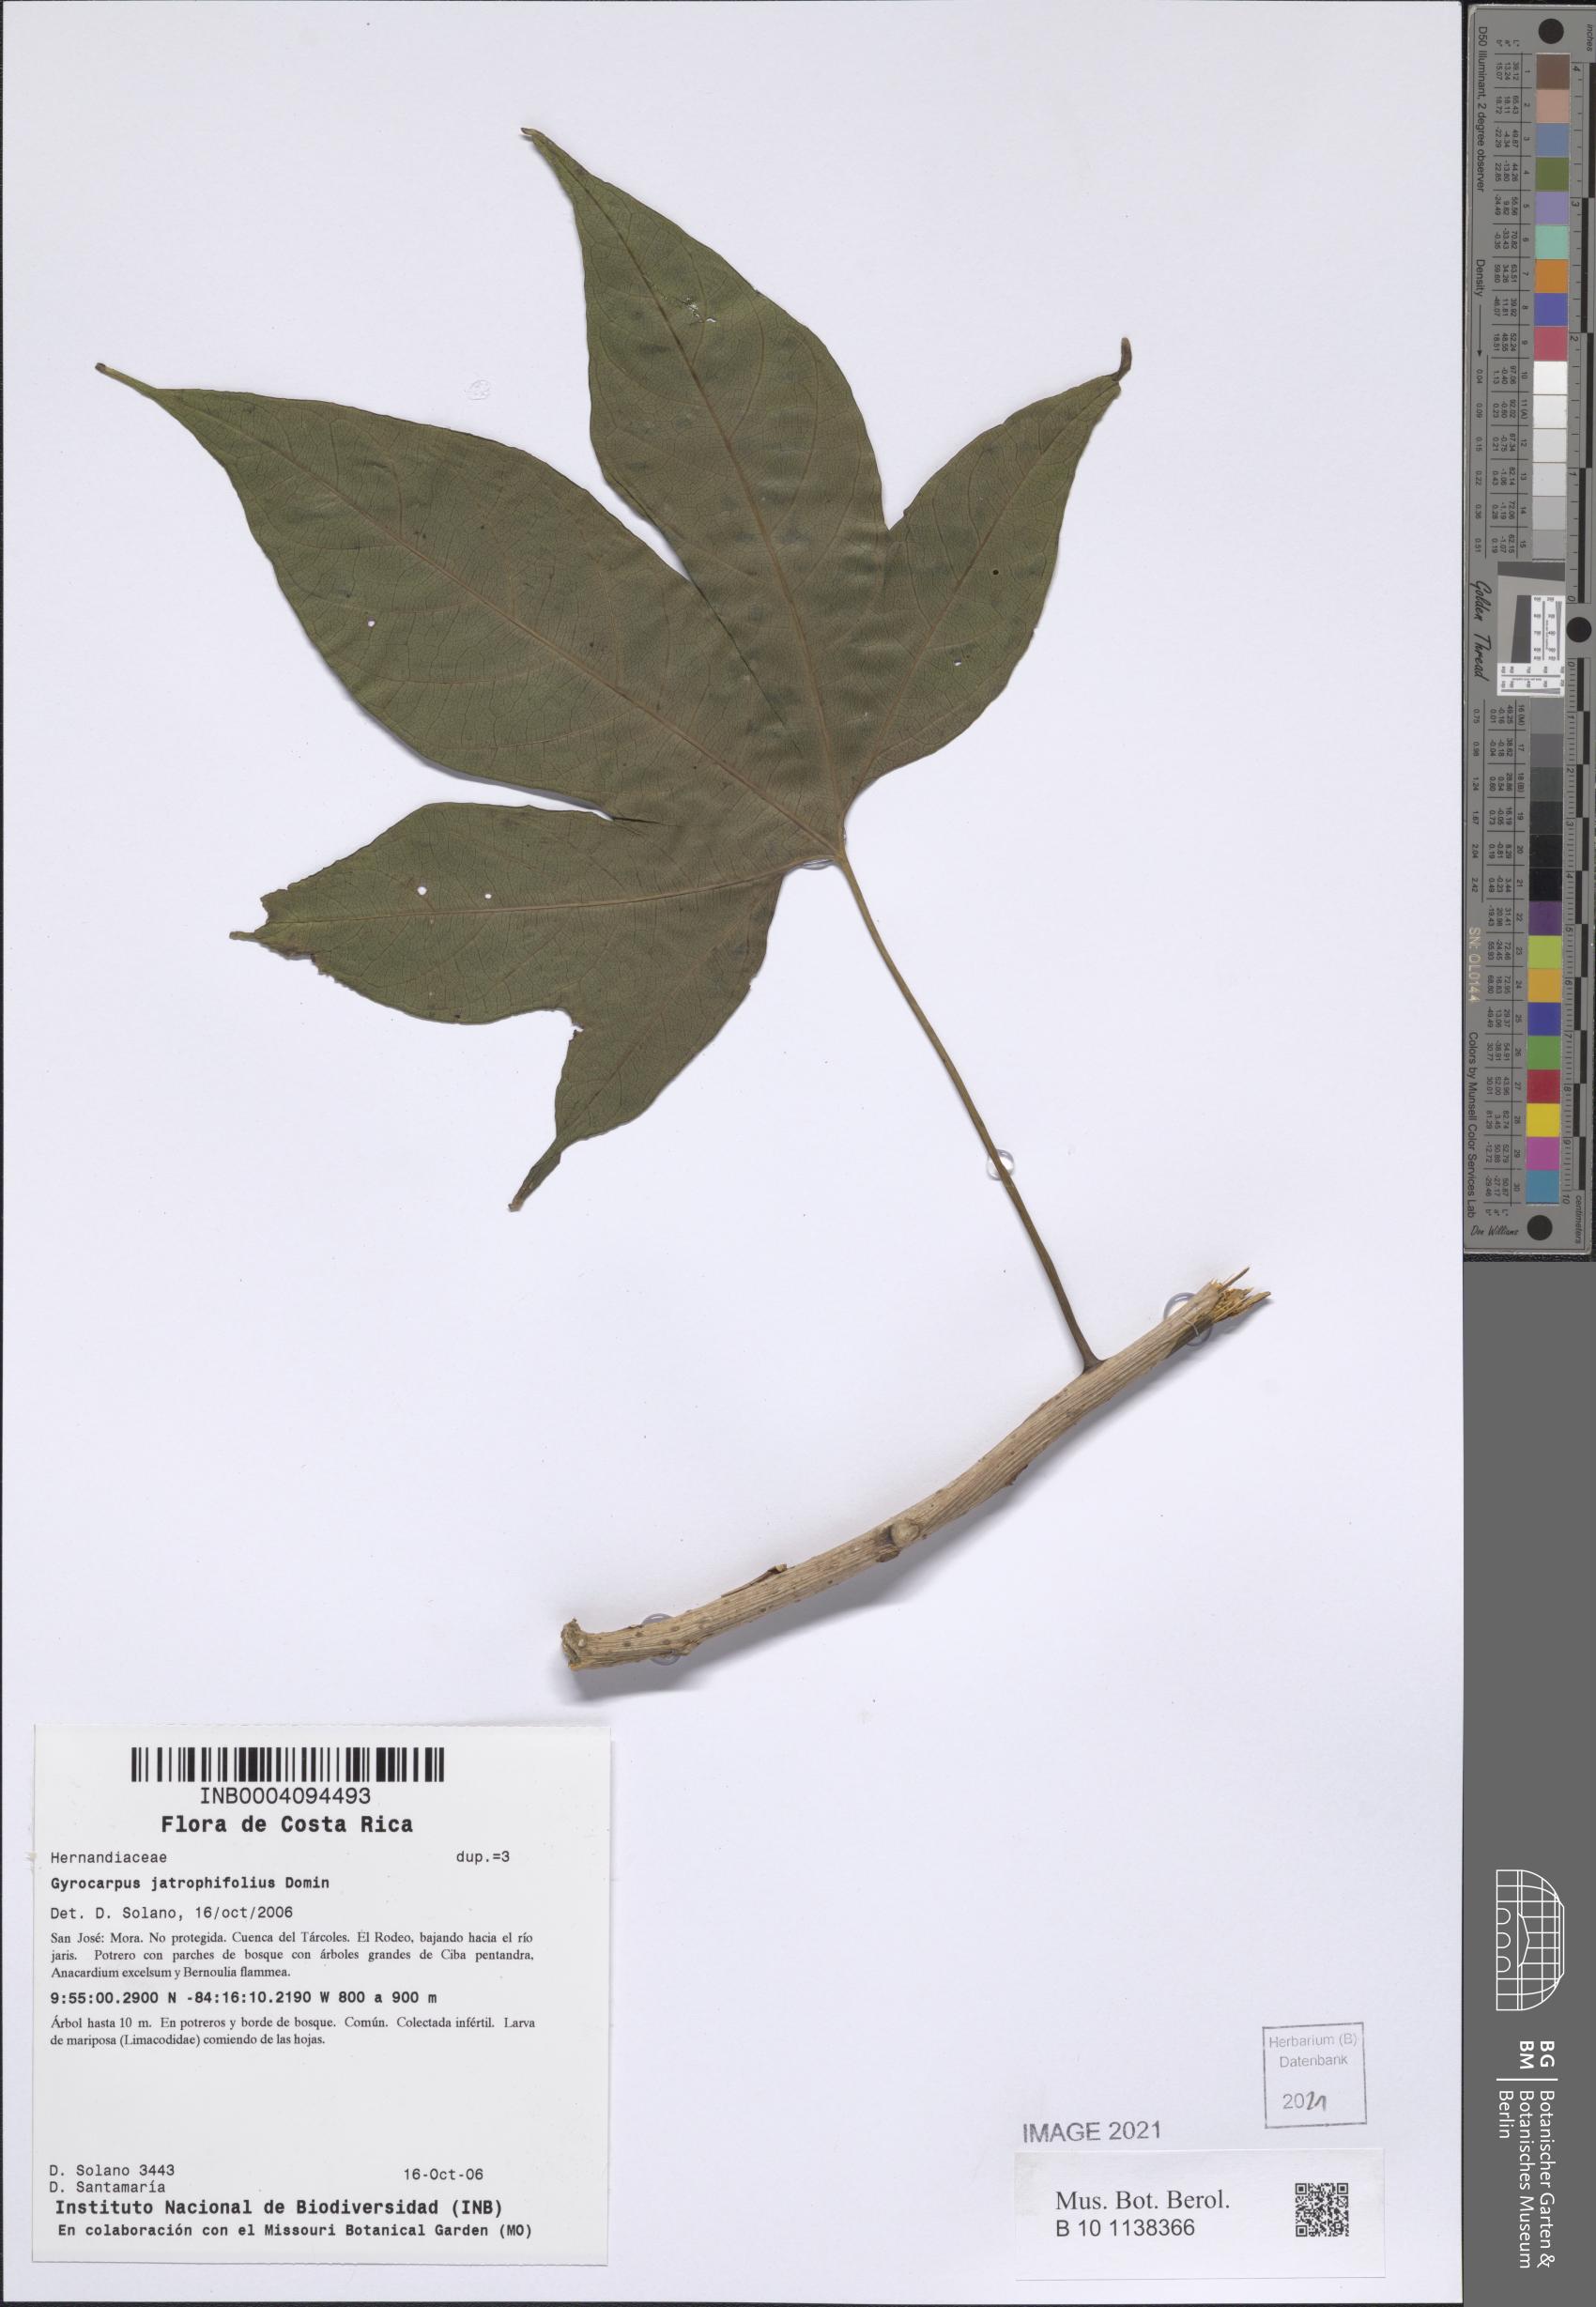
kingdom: Plantae
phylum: Tracheophyta
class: Magnoliopsida
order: Laurales
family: Hernandiaceae
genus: Gyrocarpus
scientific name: Gyrocarpus jatrophifolius
